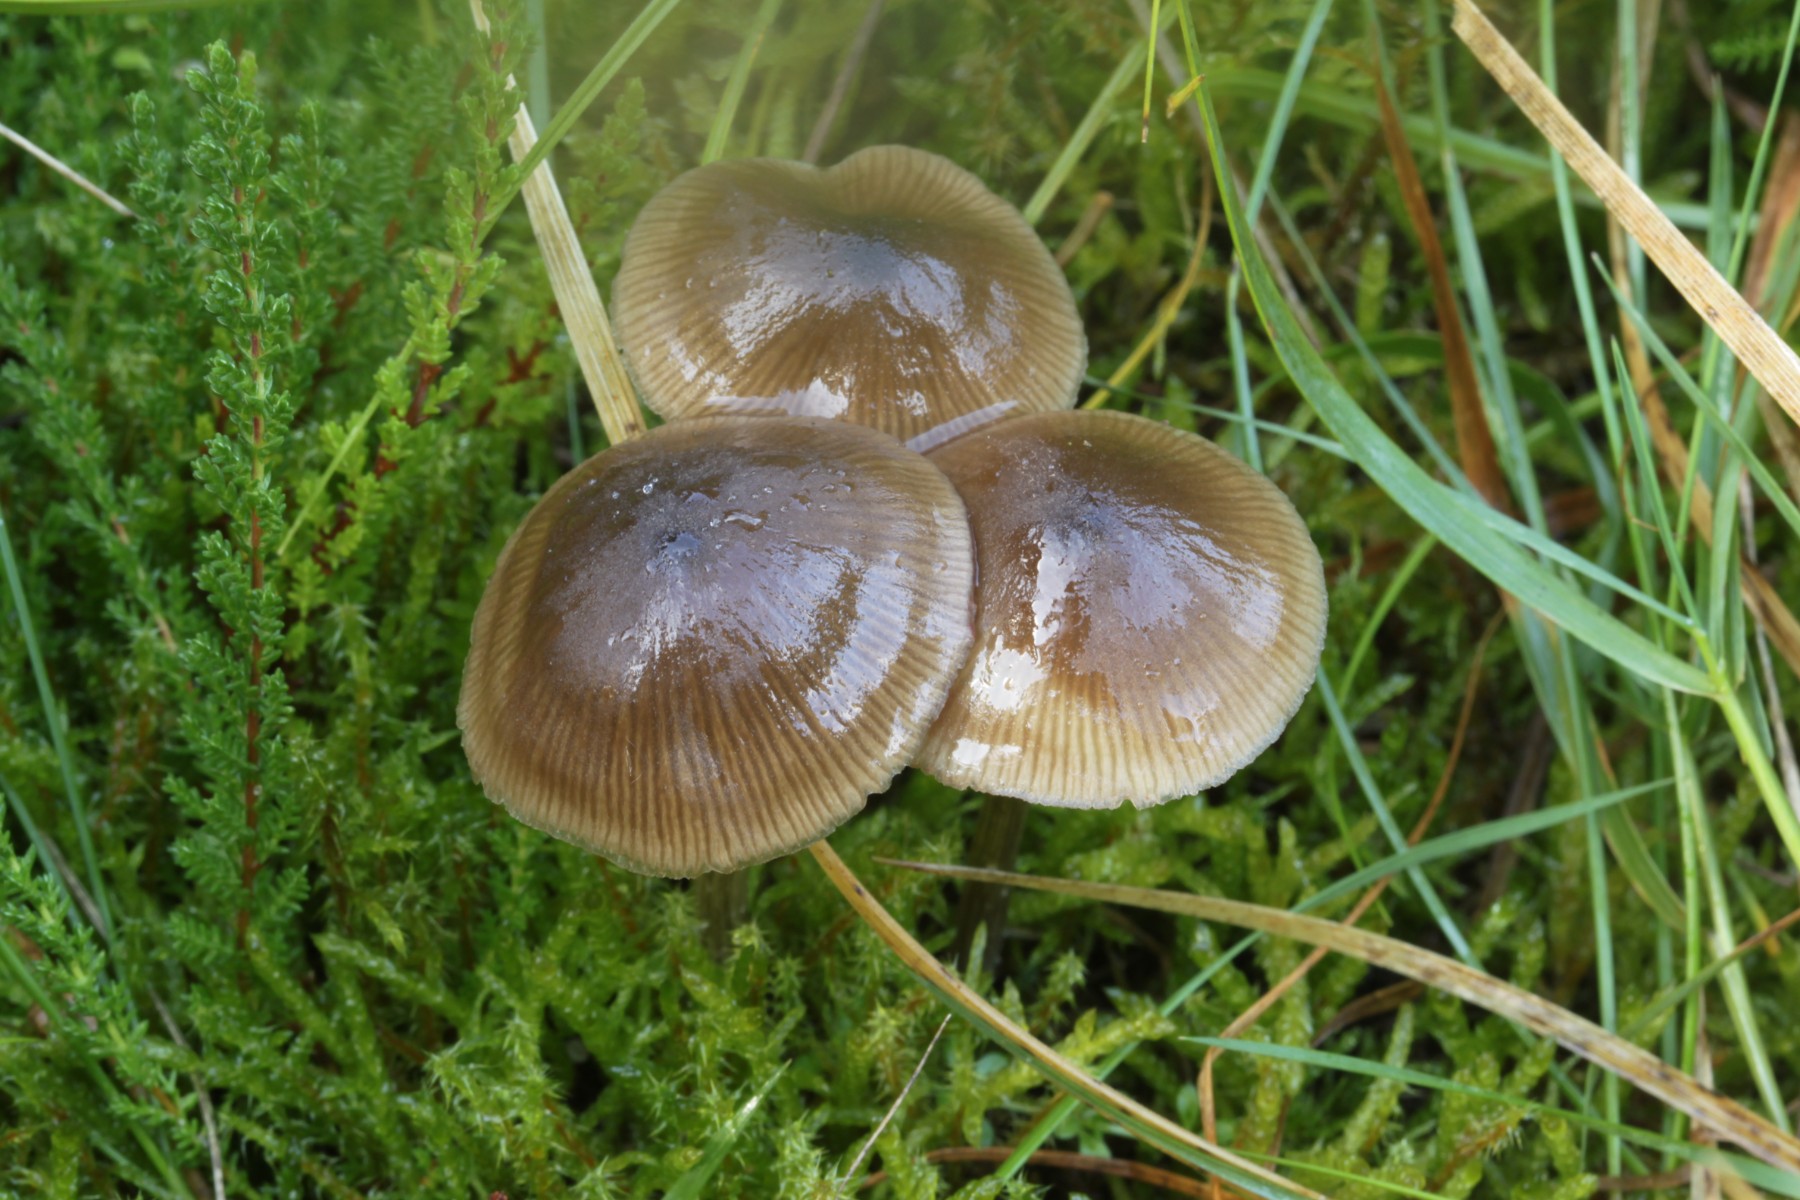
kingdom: Fungi
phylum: Basidiomycota
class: Agaricomycetes
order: Agaricales
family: Entolomataceae
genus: Entoloma
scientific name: Entoloma conferendum
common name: stjernesporet rødblad
